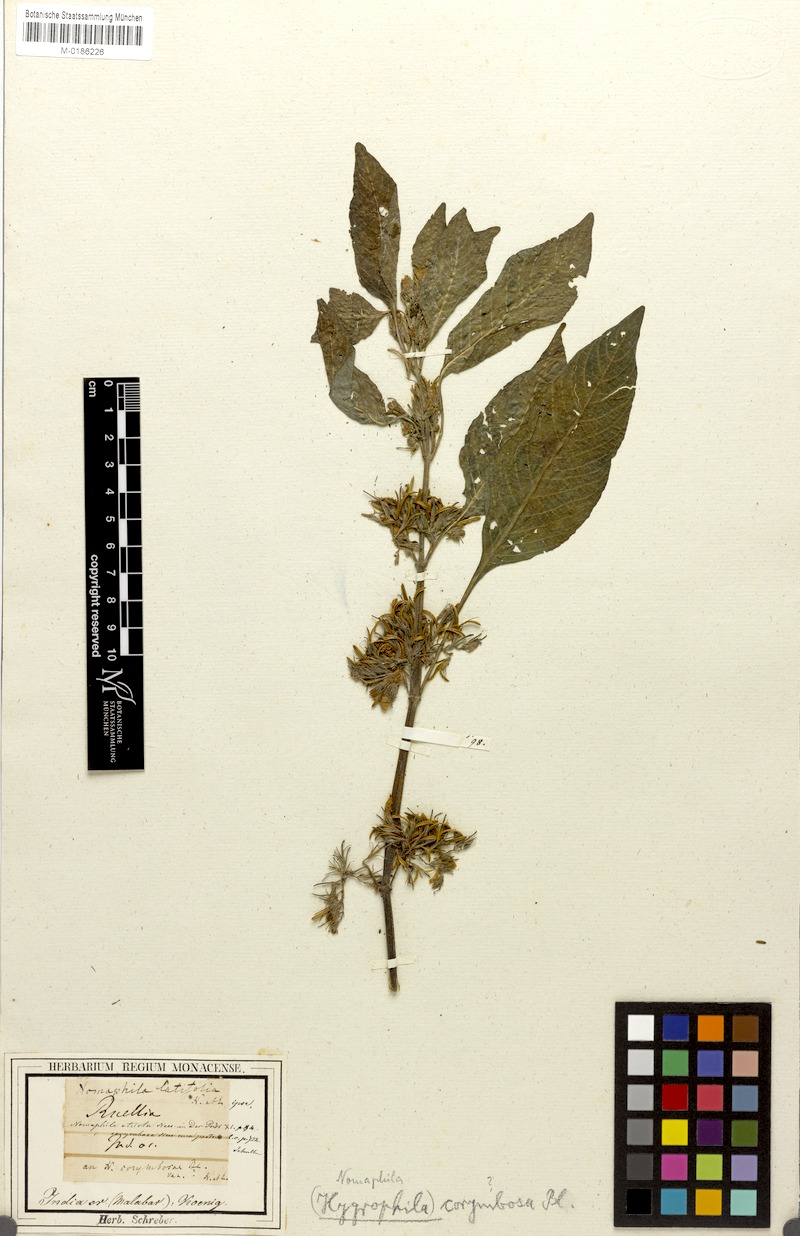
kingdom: Plantae
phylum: Tracheophyta
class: Magnoliopsida
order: Lamiales
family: Acanthaceae
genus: Hygrophila
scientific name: Hygrophila corymbosa
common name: Starhorn
